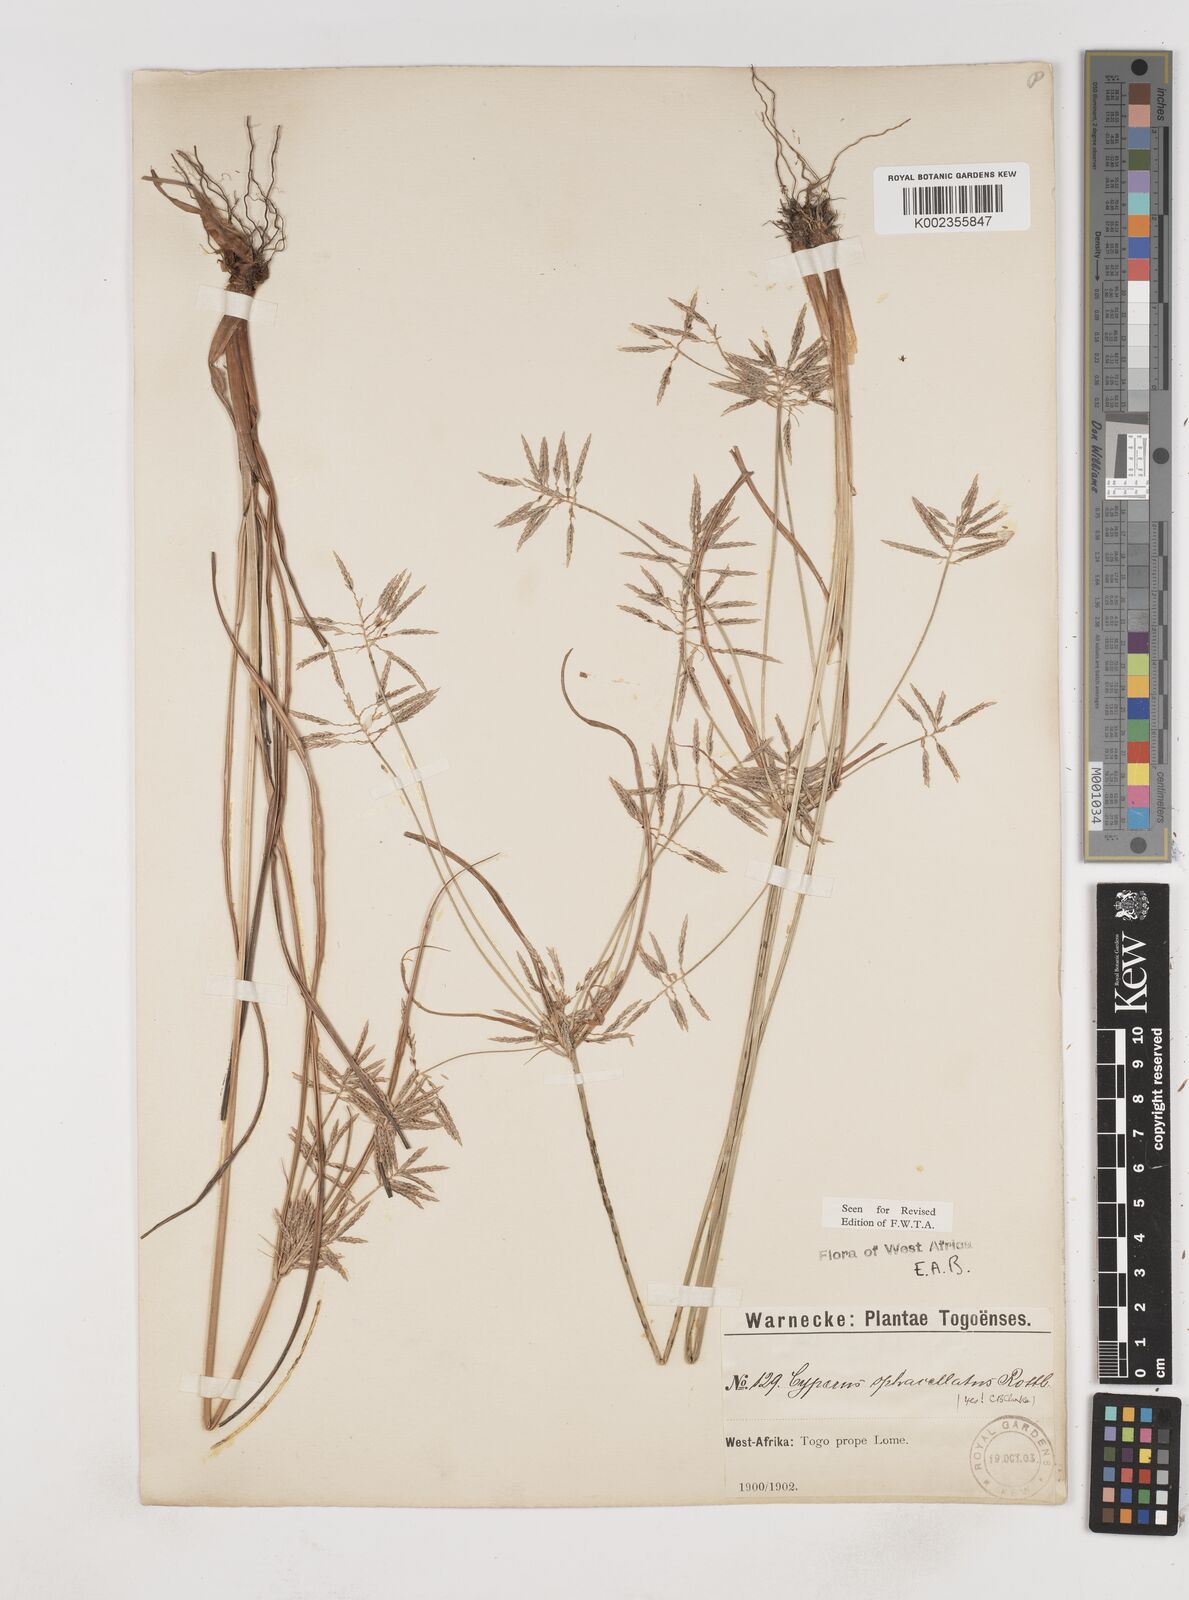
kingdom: Plantae
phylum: Tracheophyta
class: Liliopsida
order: Poales
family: Cyperaceae
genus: Cyperus
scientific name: Cyperus sphacelatus
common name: Roadside flatsedge
